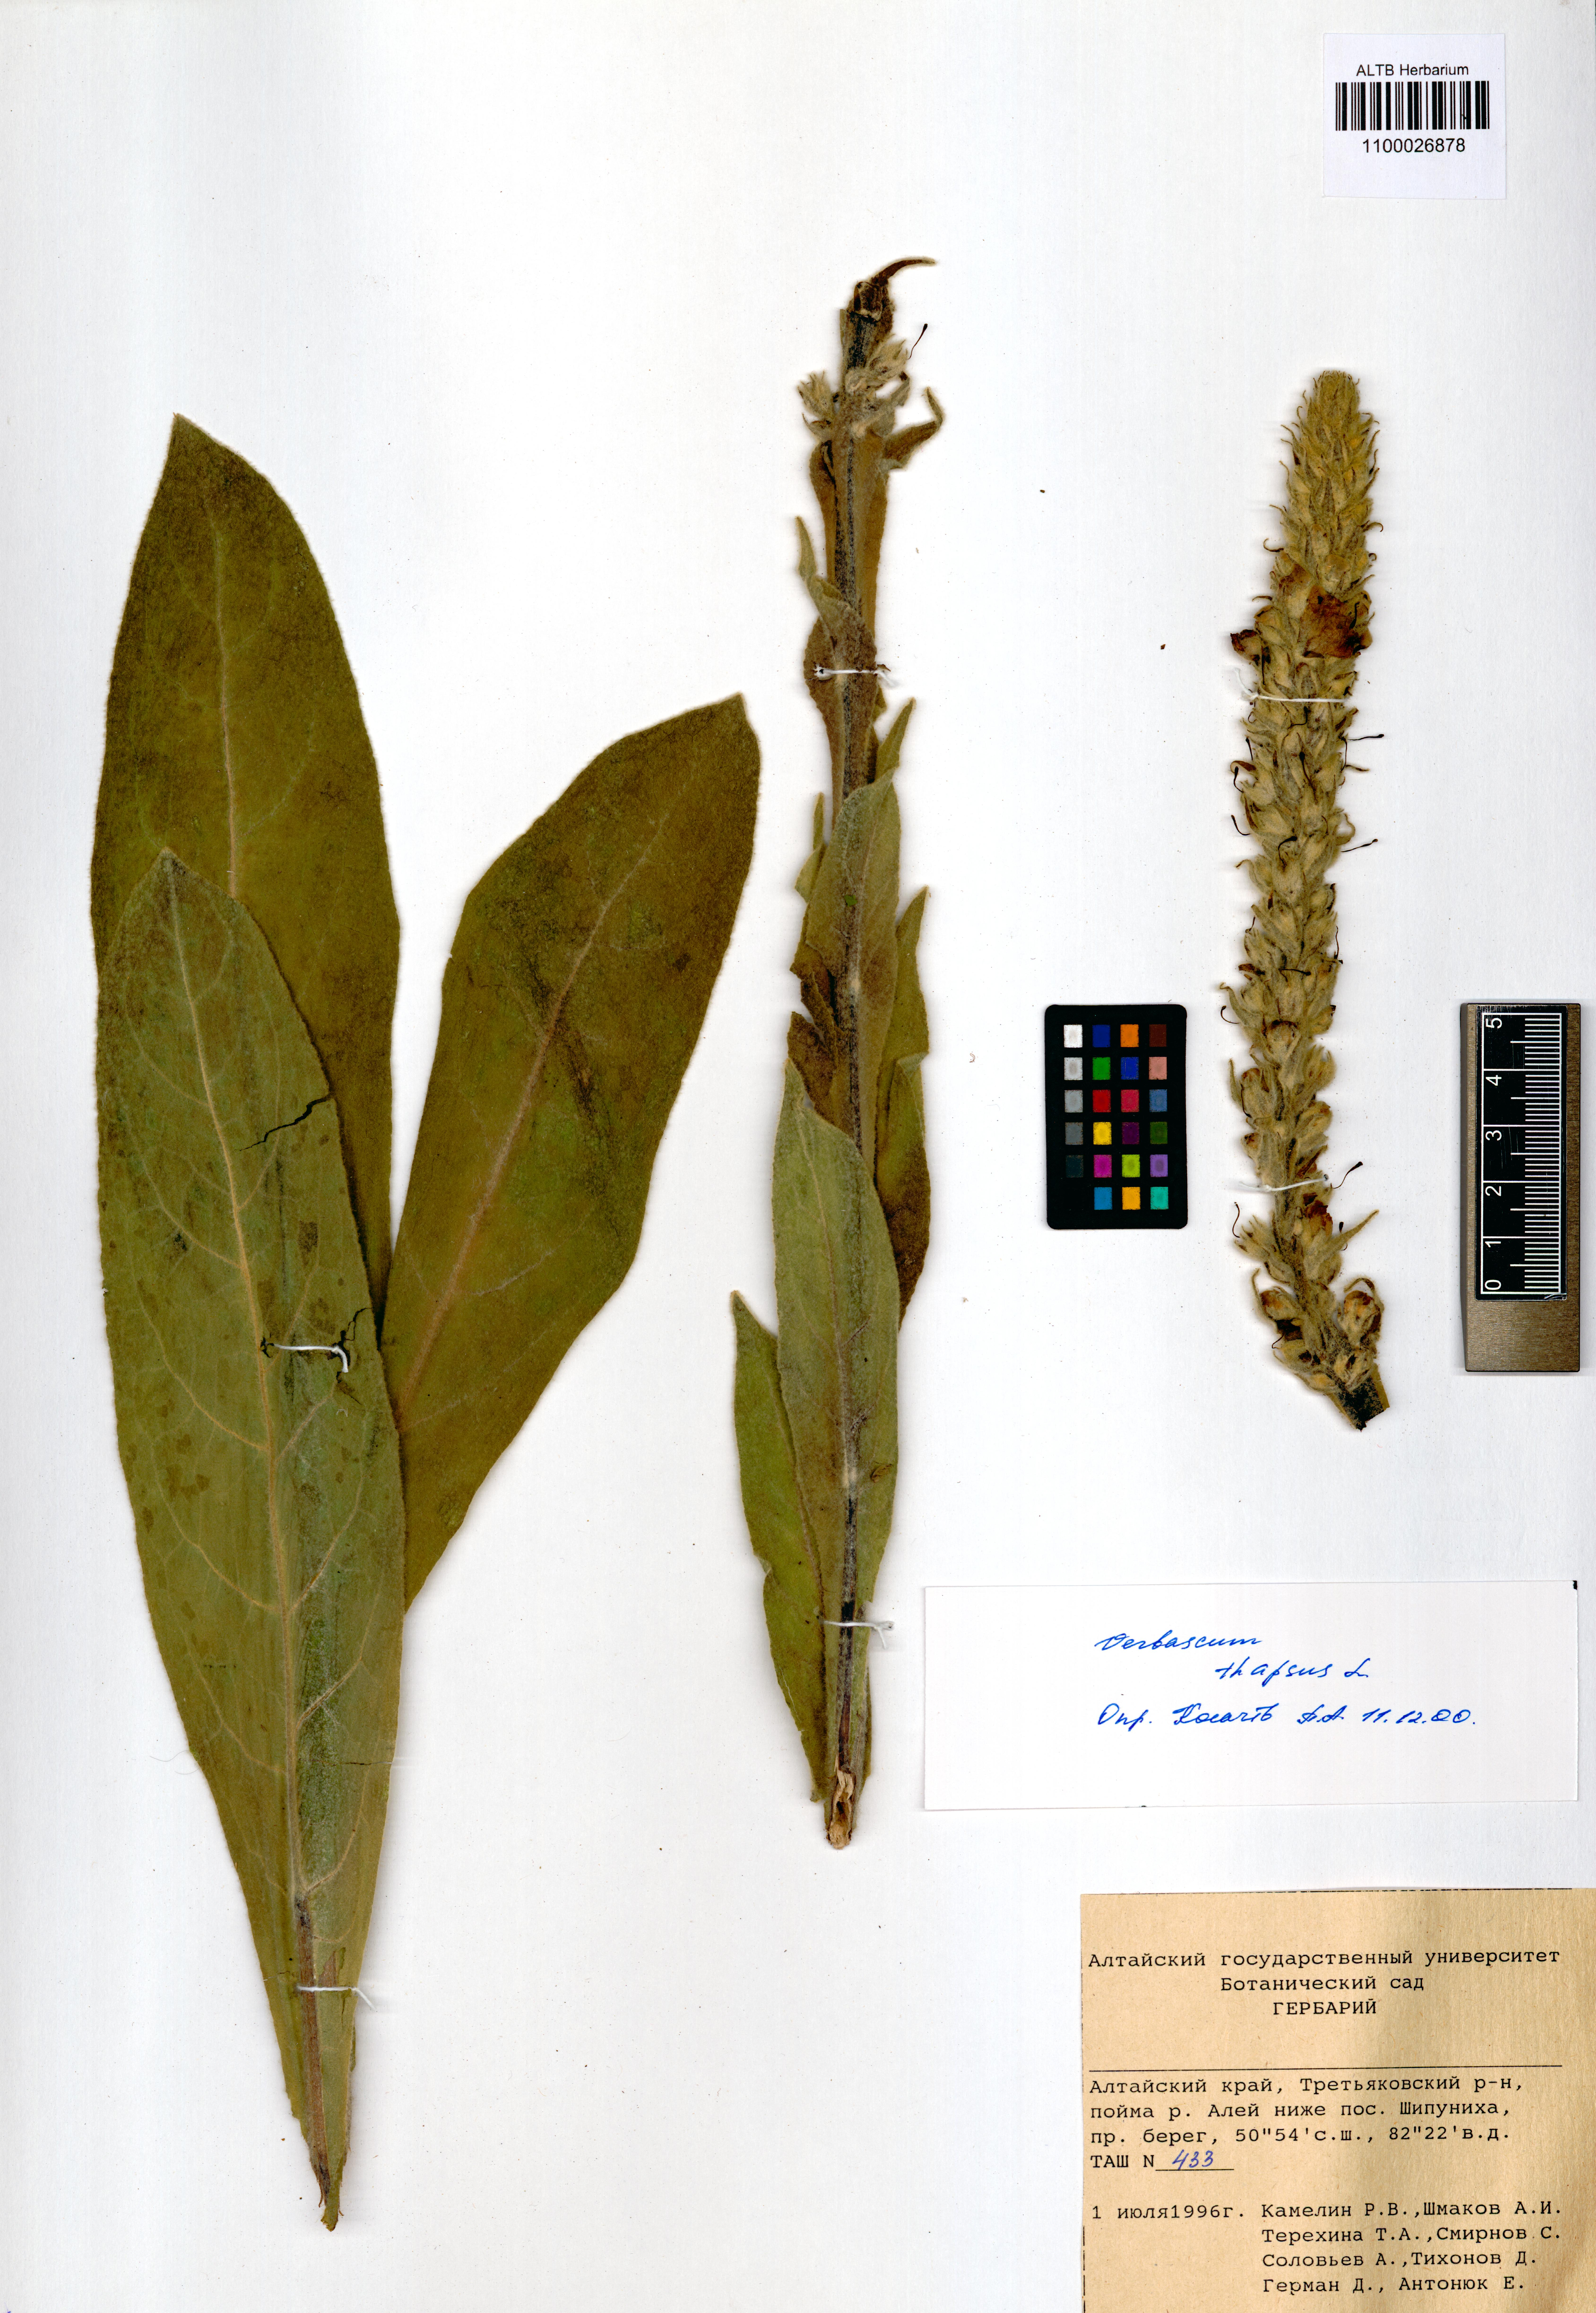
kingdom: Plantae
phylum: Tracheophyta
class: Magnoliopsida
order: Lamiales
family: Scrophulariaceae
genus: Verbascum
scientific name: Verbascum thapsus
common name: Common mullein
